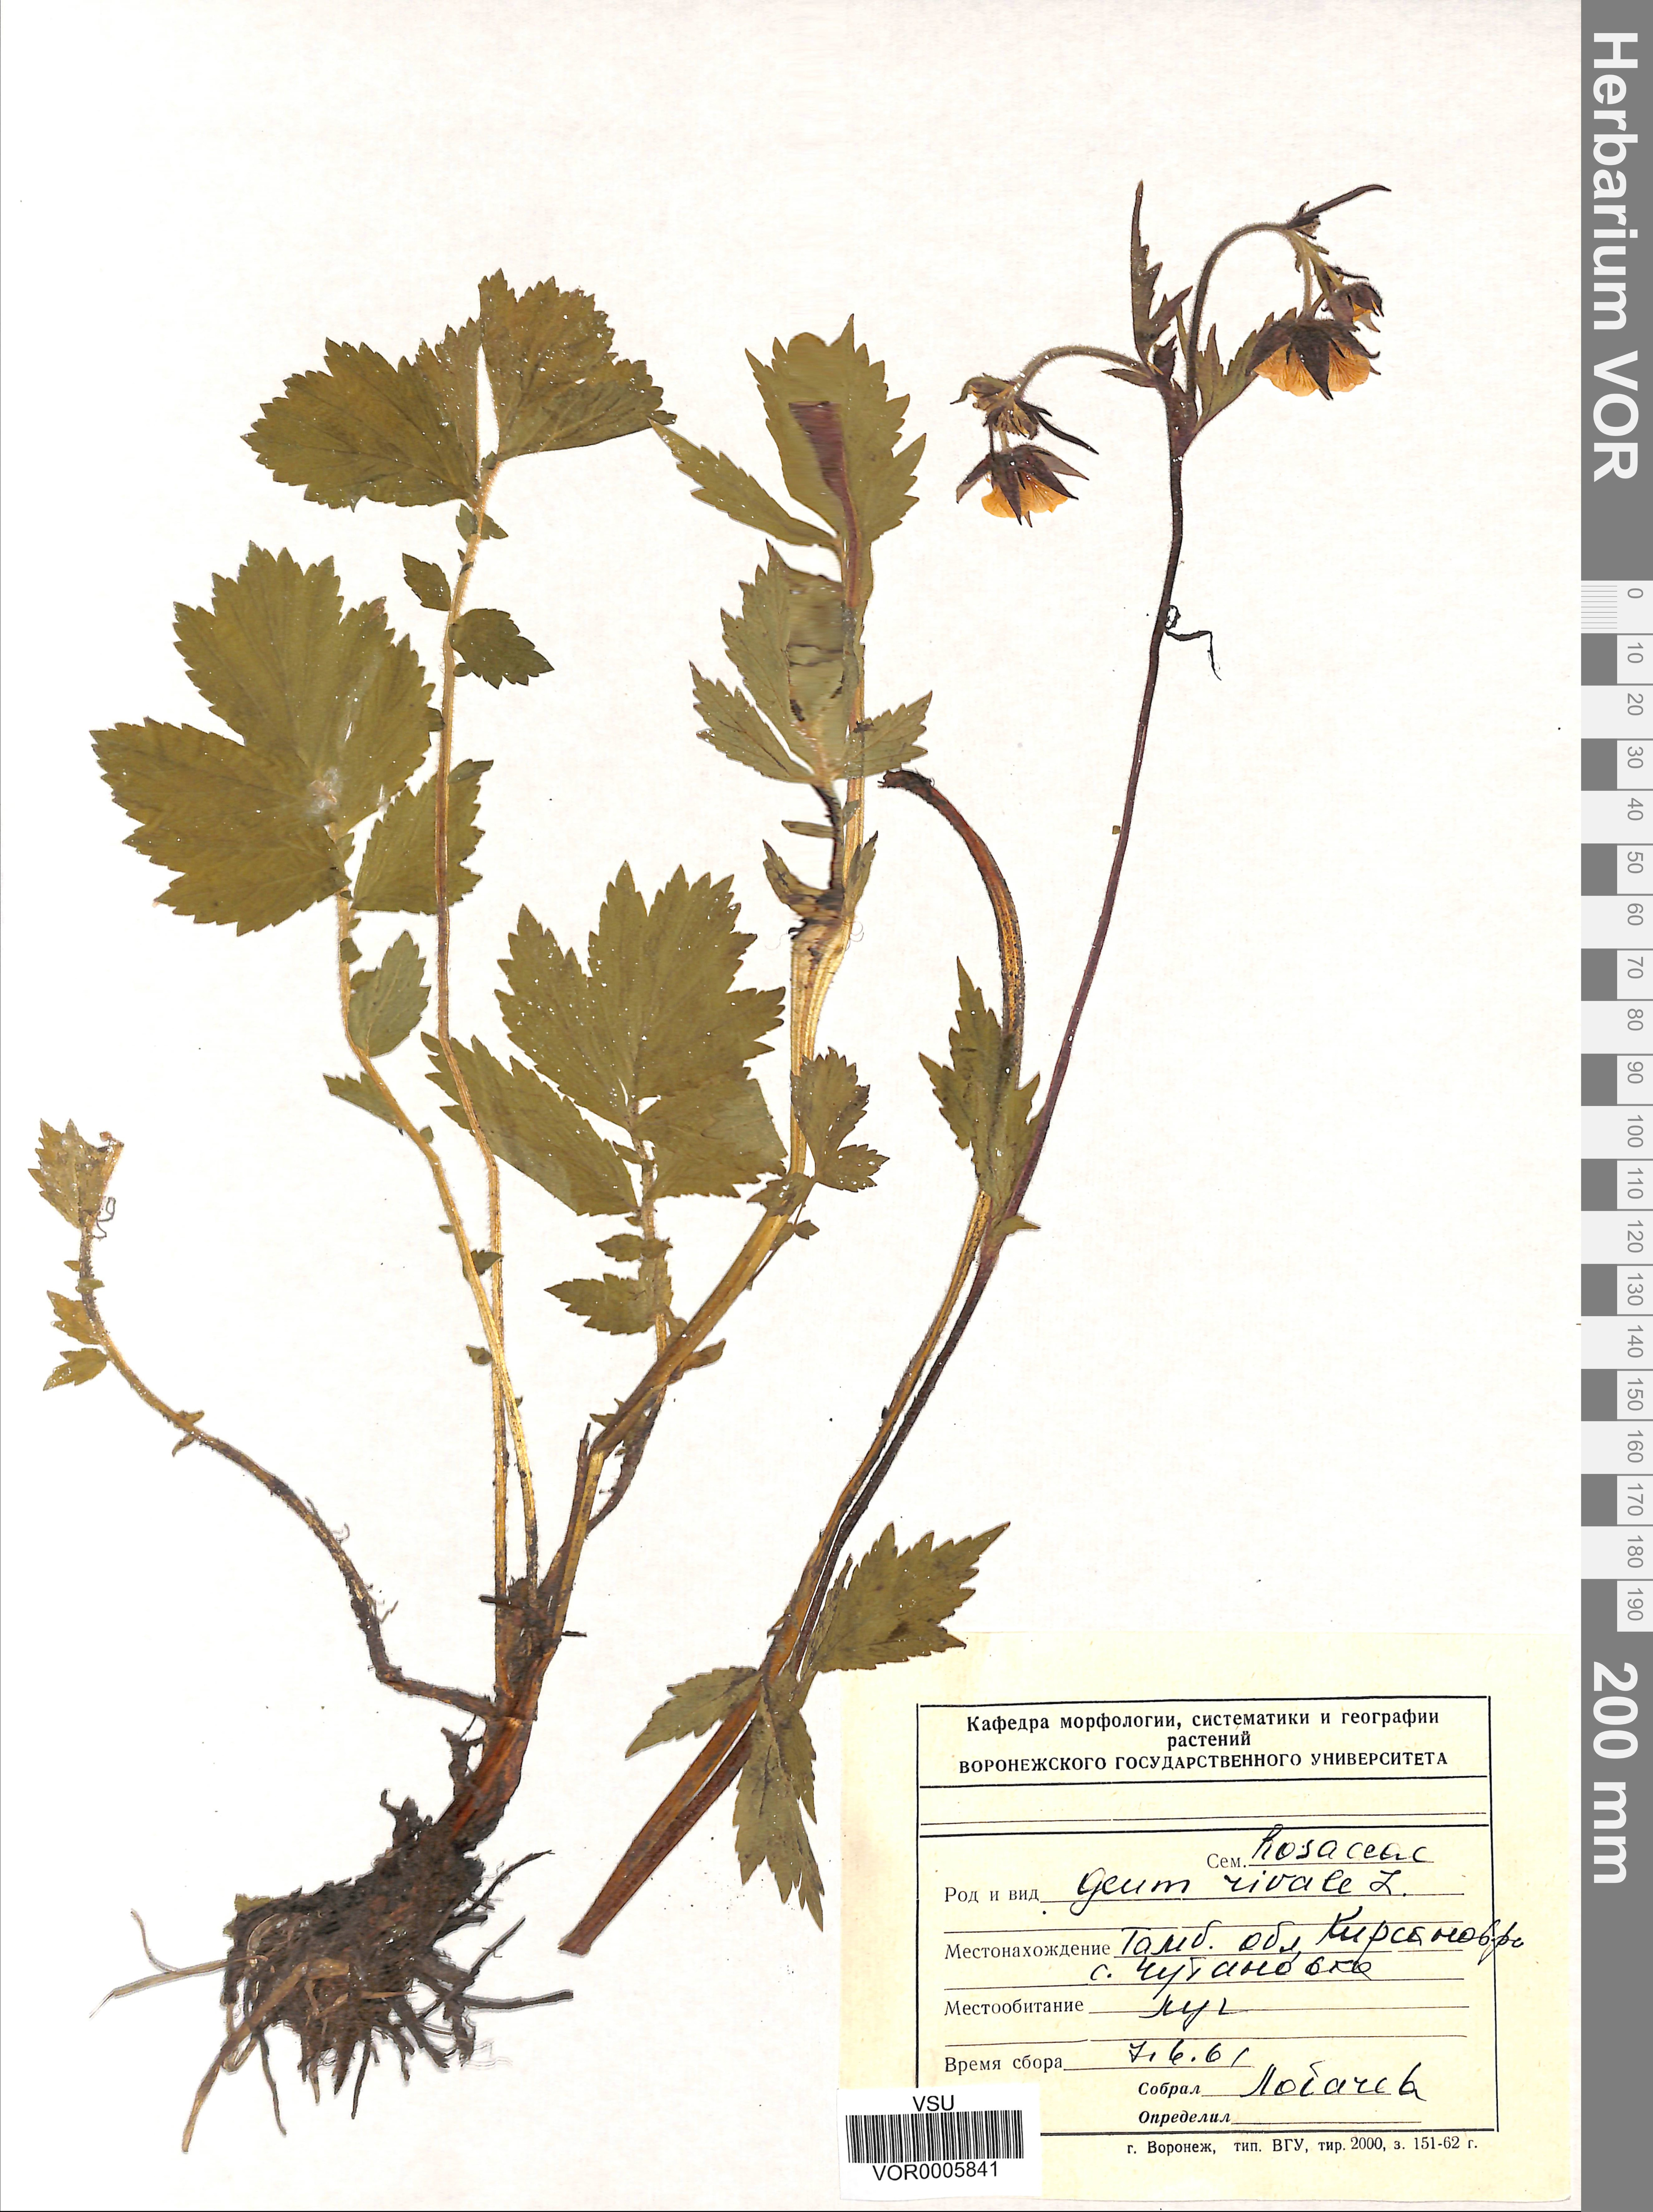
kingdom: Plantae
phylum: Tracheophyta
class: Magnoliopsida
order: Rosales
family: Rosaceae
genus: Geum
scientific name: Geum rivale
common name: Water avens
